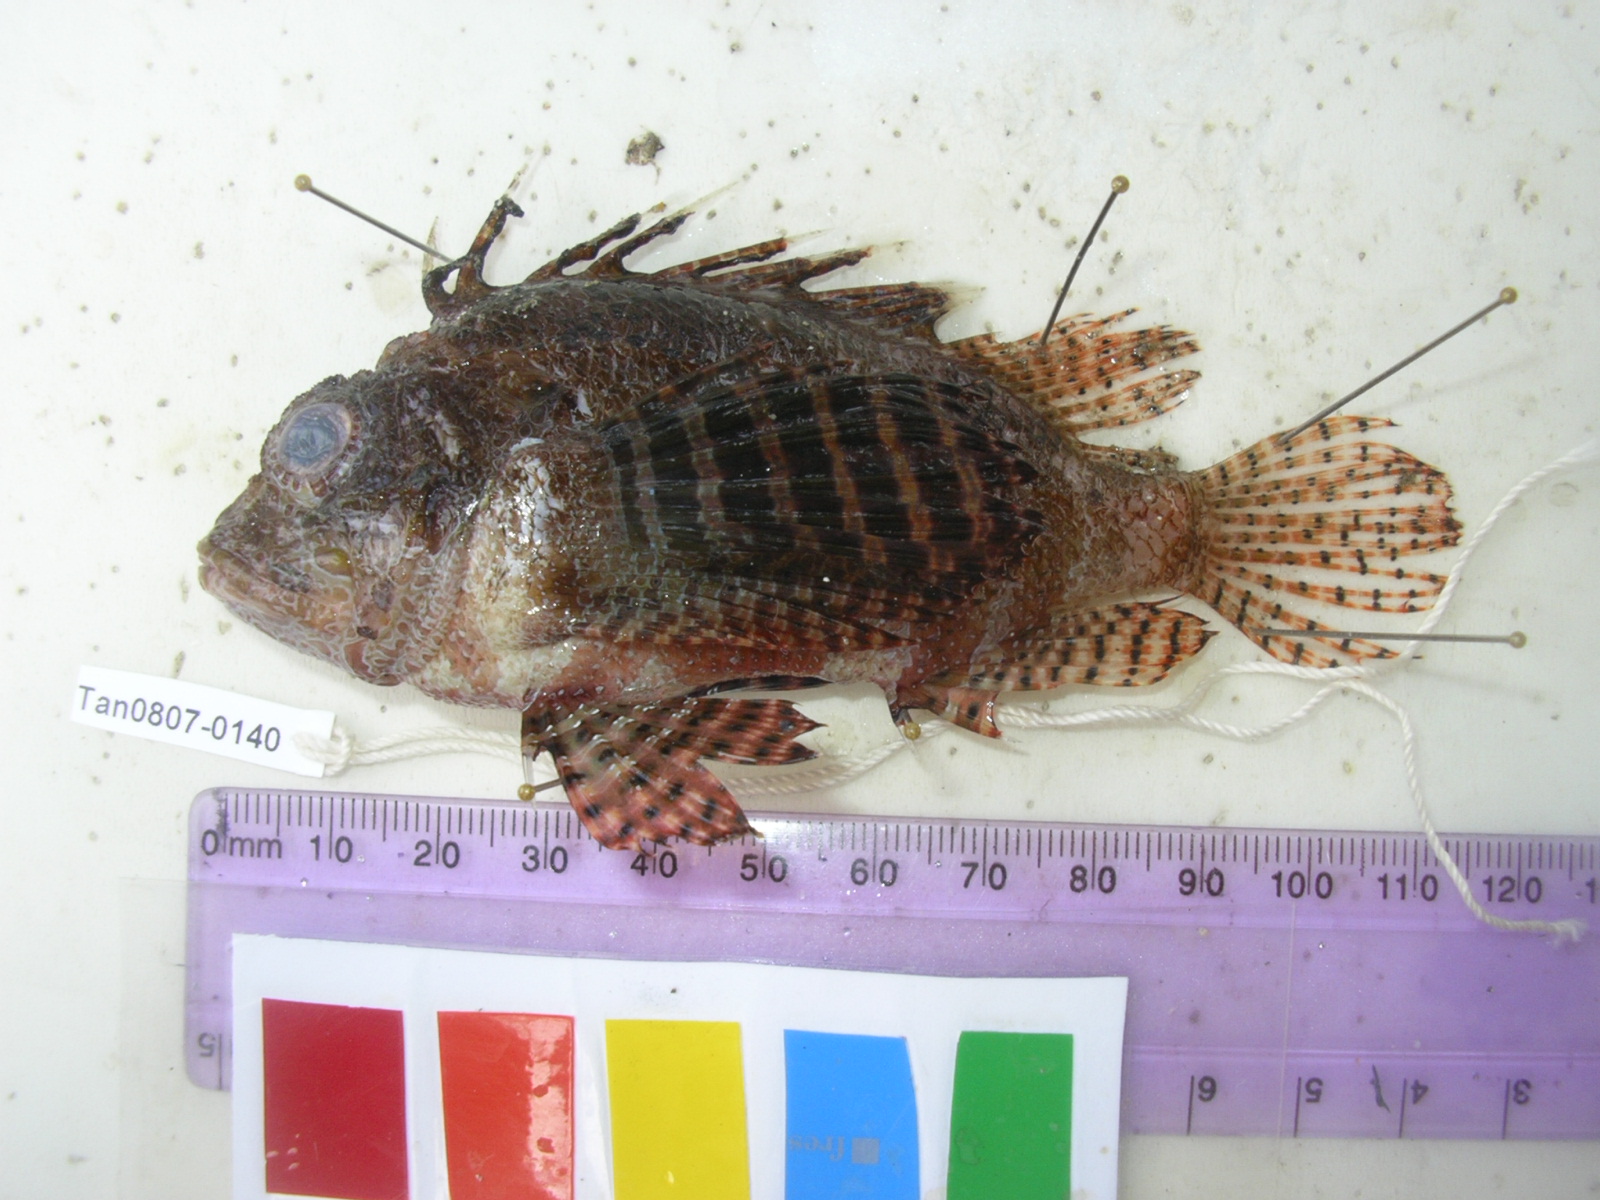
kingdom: Animalia
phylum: Chordata
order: Scorpaeniformes
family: Scorpaenidae
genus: Dendrochirus
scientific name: Dendrochirus brachypterus
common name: Shortfin turkeyfish
